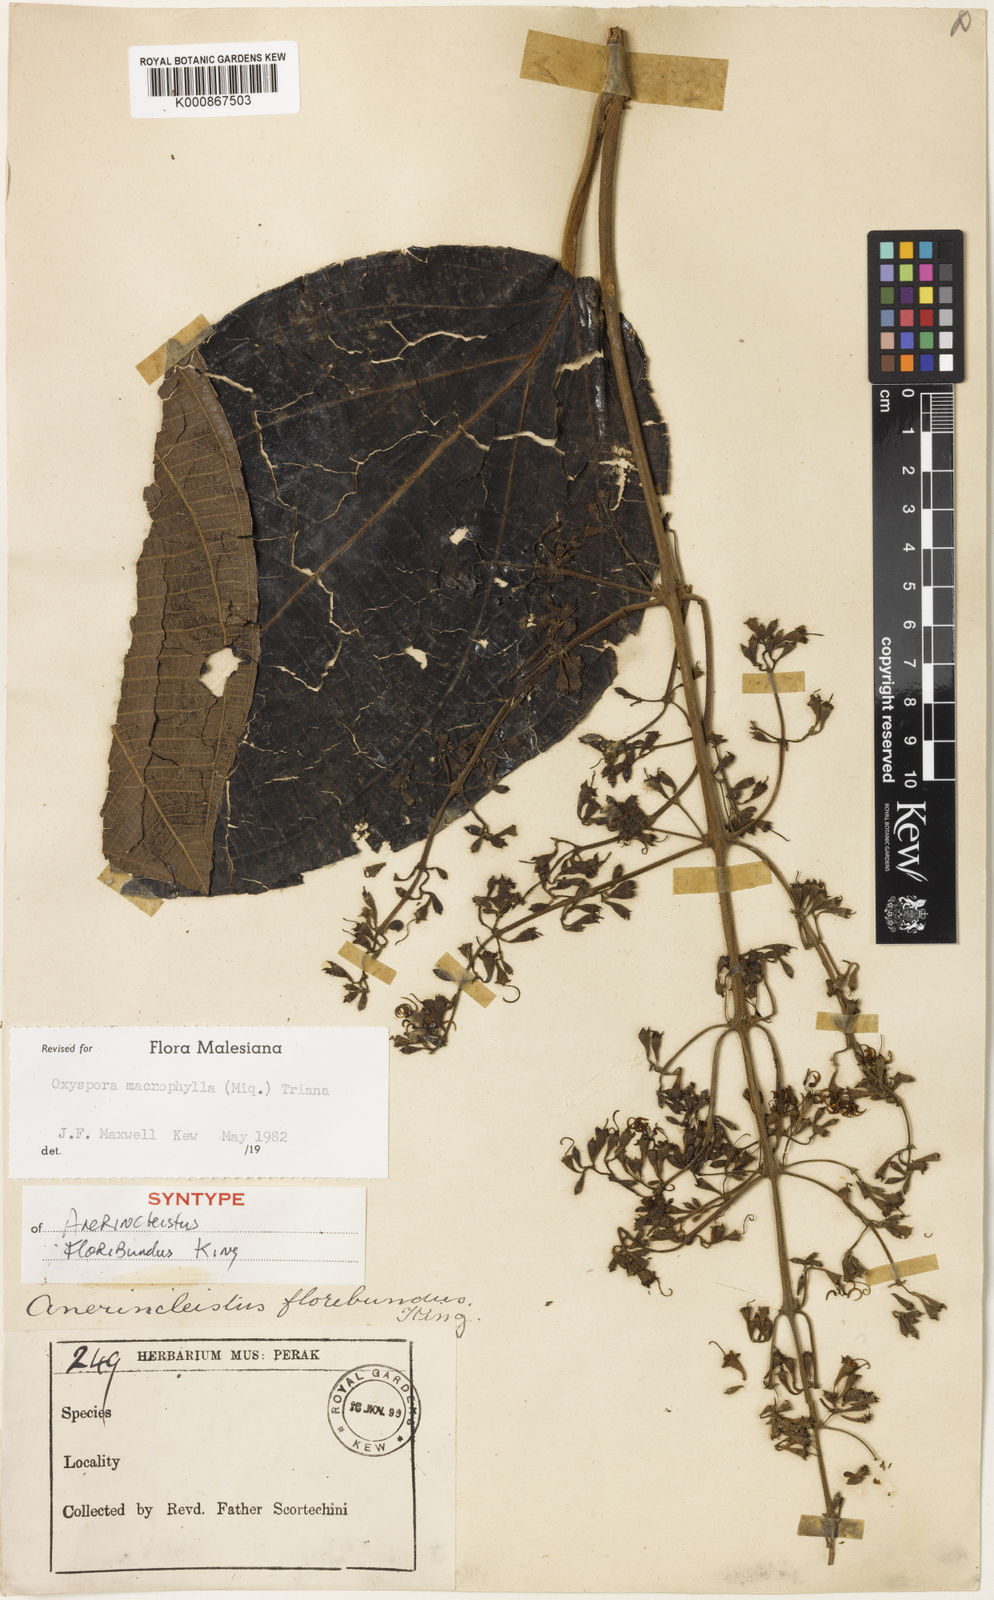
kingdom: Plantae
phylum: Tracheophyta
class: Magnoliopsida
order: Myrtales
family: Melastomataceae
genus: Hylocharis
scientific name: Hylocharis macrophylla
